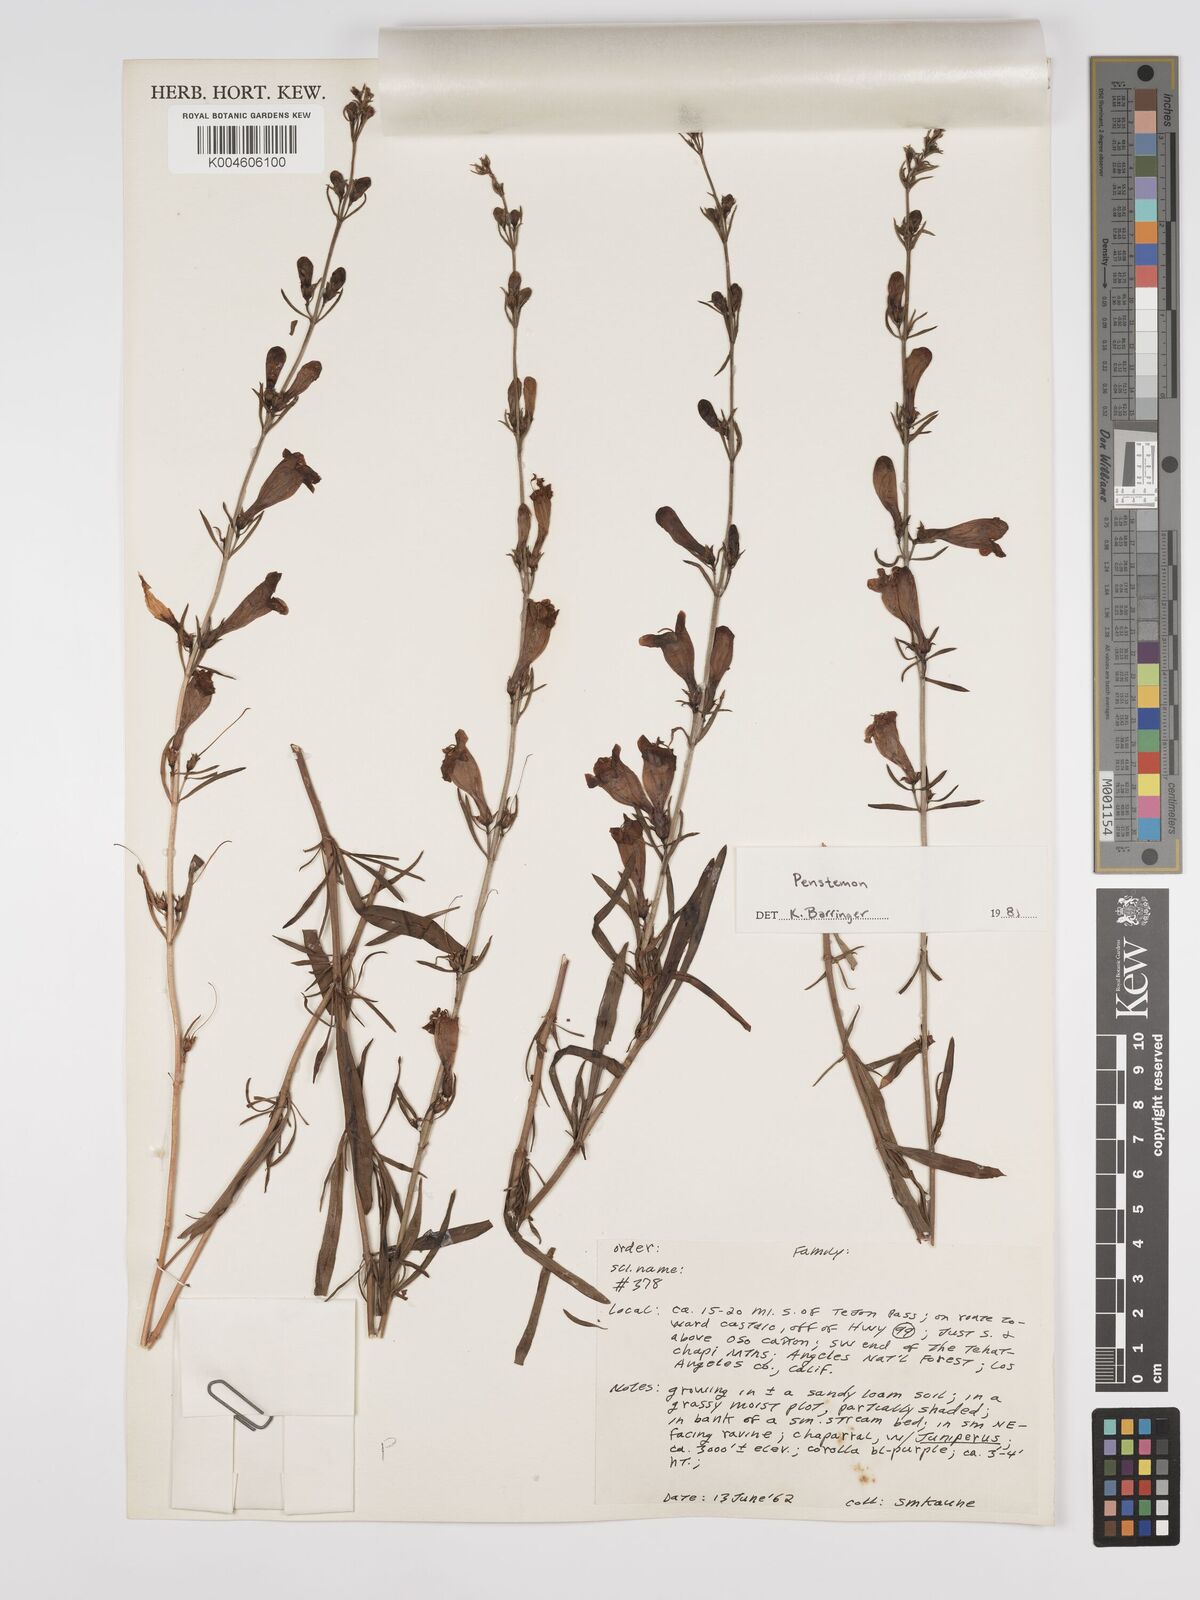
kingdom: Plantae
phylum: Tracheophyta
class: Magnoliopsida
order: Lamiales
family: Plantaginaceae
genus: Penstemon
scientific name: Penstemon
